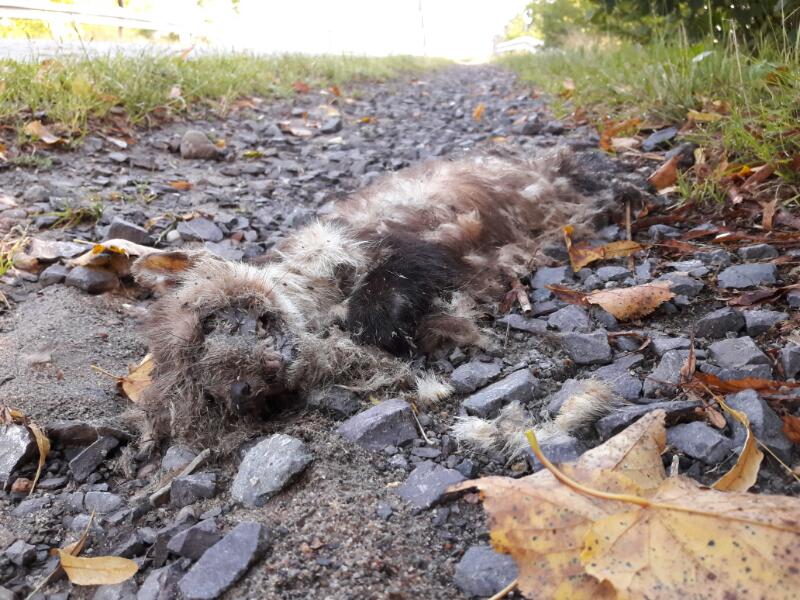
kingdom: Animalia
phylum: Chordata
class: Mammalia
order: Carnivora
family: Mustelidae
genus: Martes
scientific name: Martes foina
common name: Beech marten
